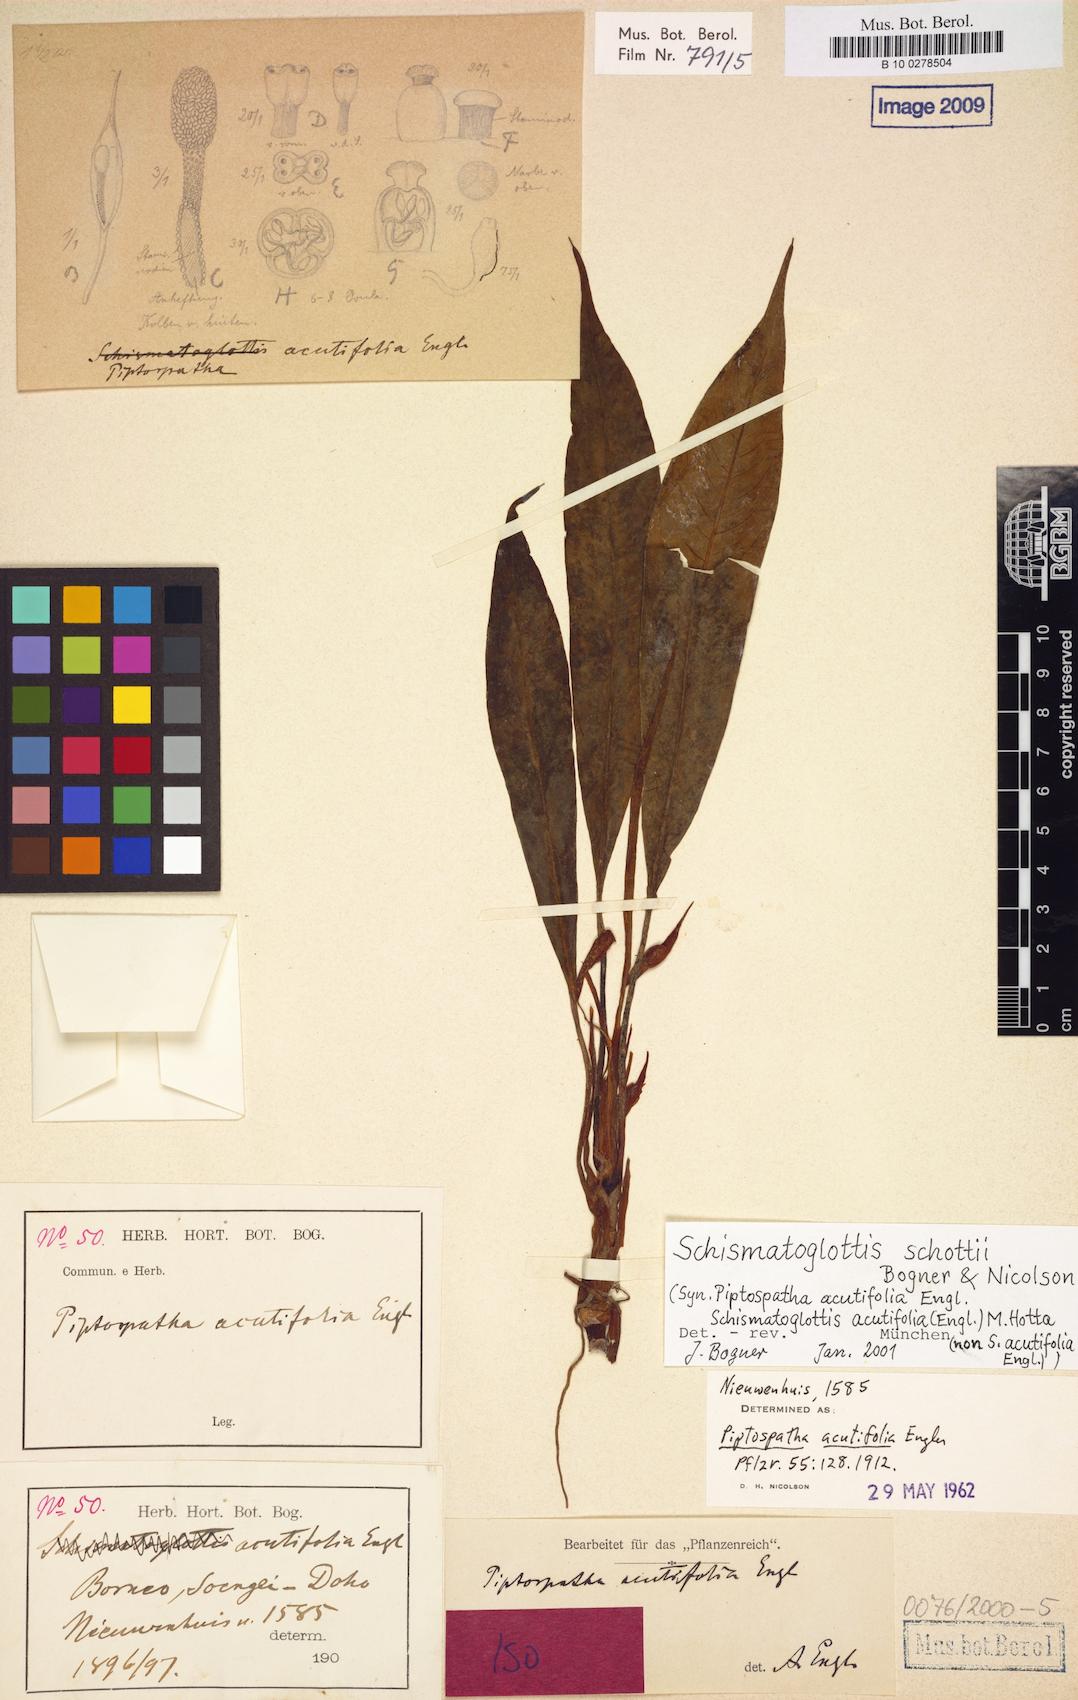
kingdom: Plantae
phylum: Tracheophyta
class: Liliopsida
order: Alismatales
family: Araceae
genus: Schismatoglottis
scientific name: Schismatoglottis schottii
